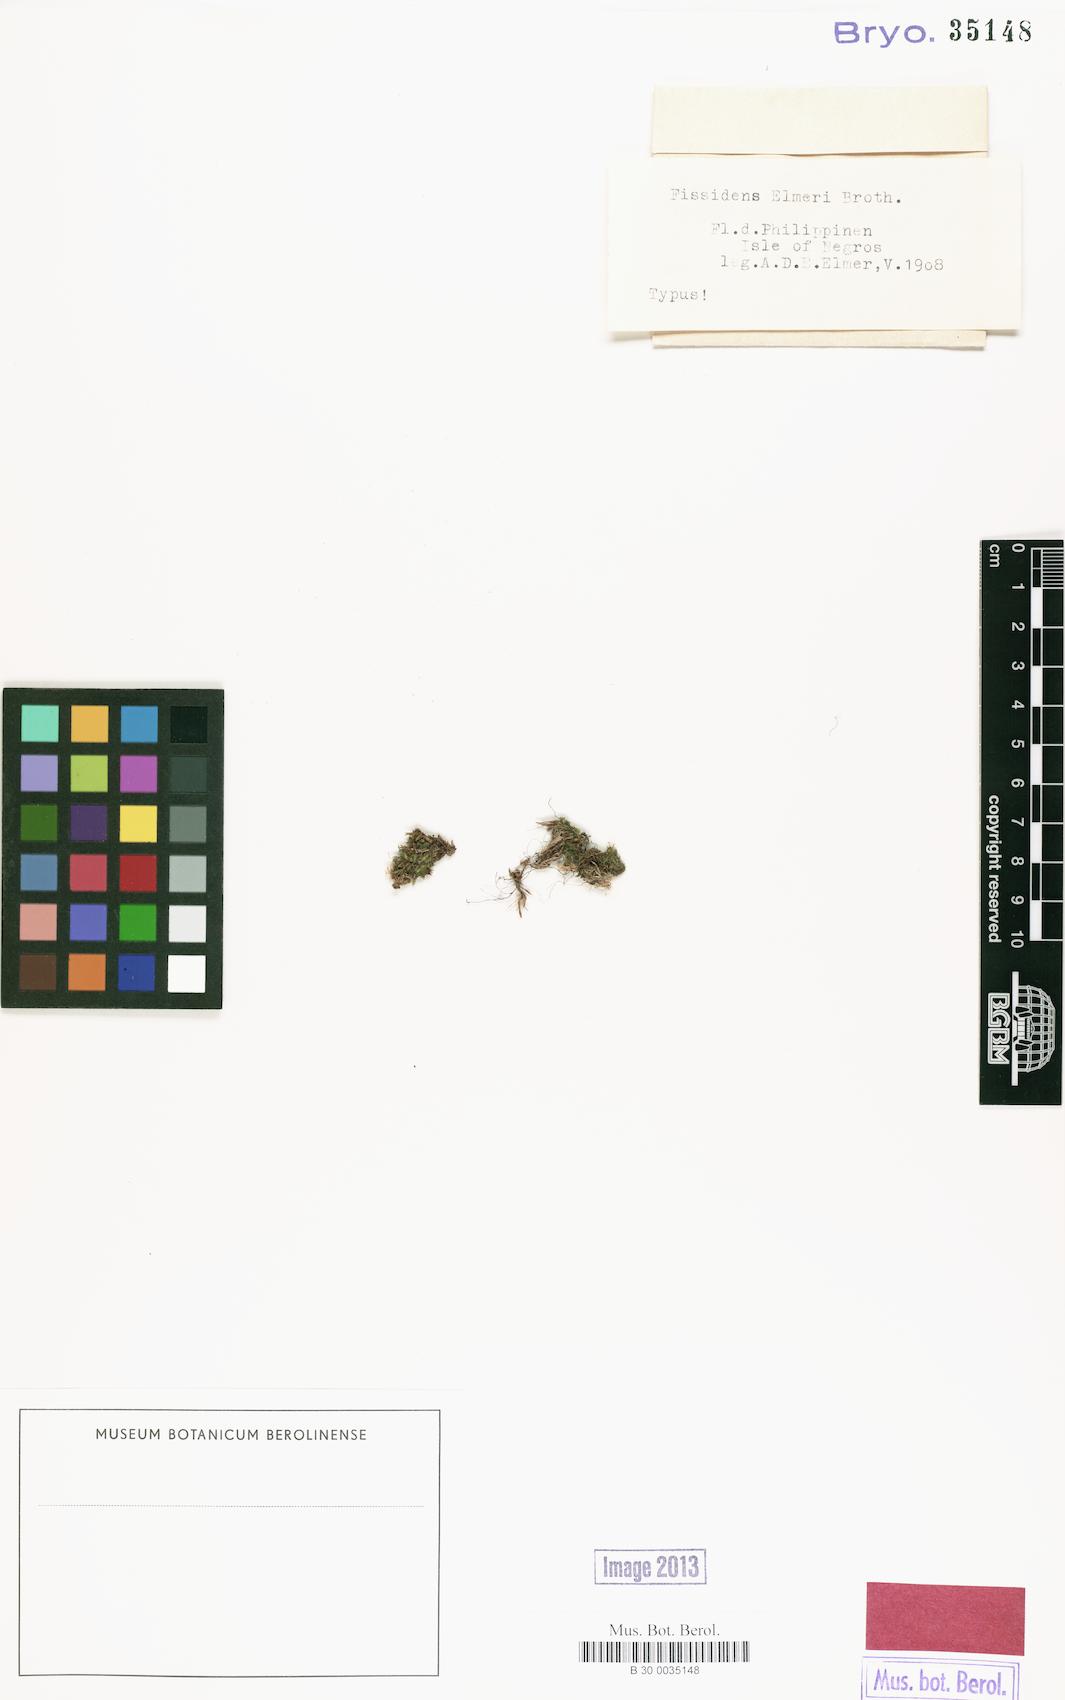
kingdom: Plantae
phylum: Bryophyta
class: Bryopsida
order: Dicranales
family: Fissidentaceae
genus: Fissidens
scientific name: Fissidens crenulatus
